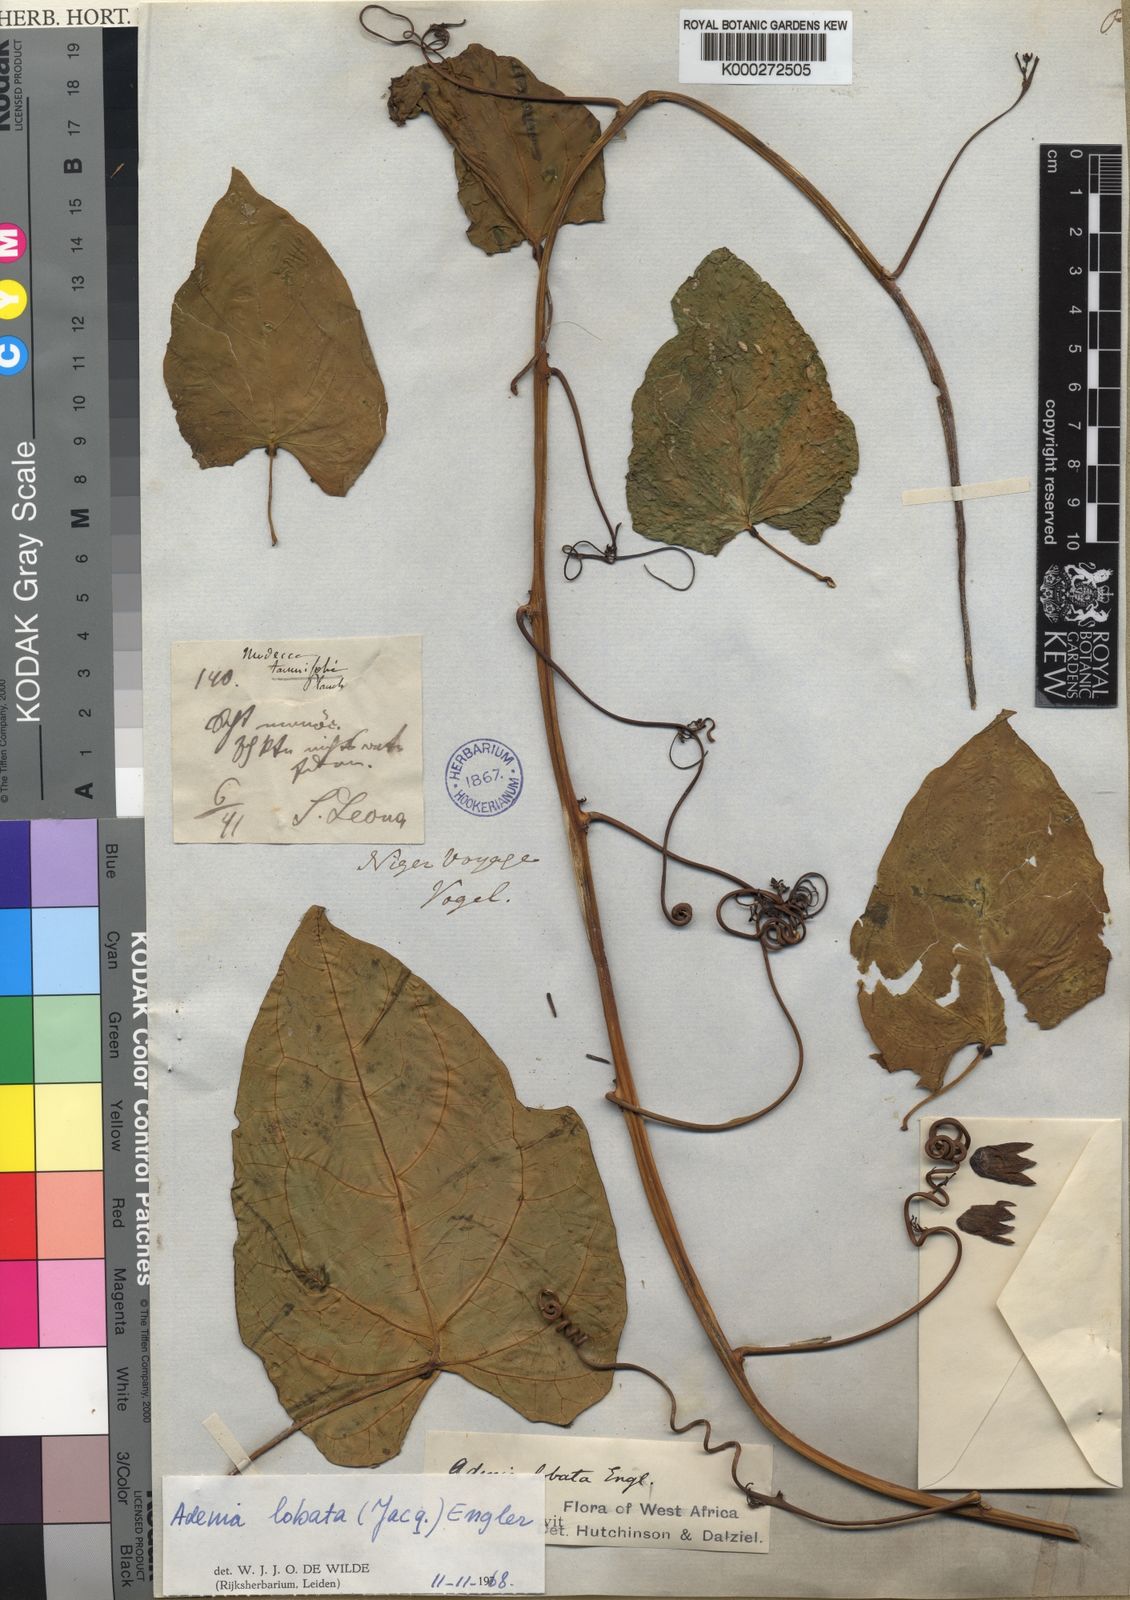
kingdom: Plantae
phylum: Tracheophyta
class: Magnoliopsida
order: Malpighiales
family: Passifloraceae
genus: Adenia
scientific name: Adenia lobata
